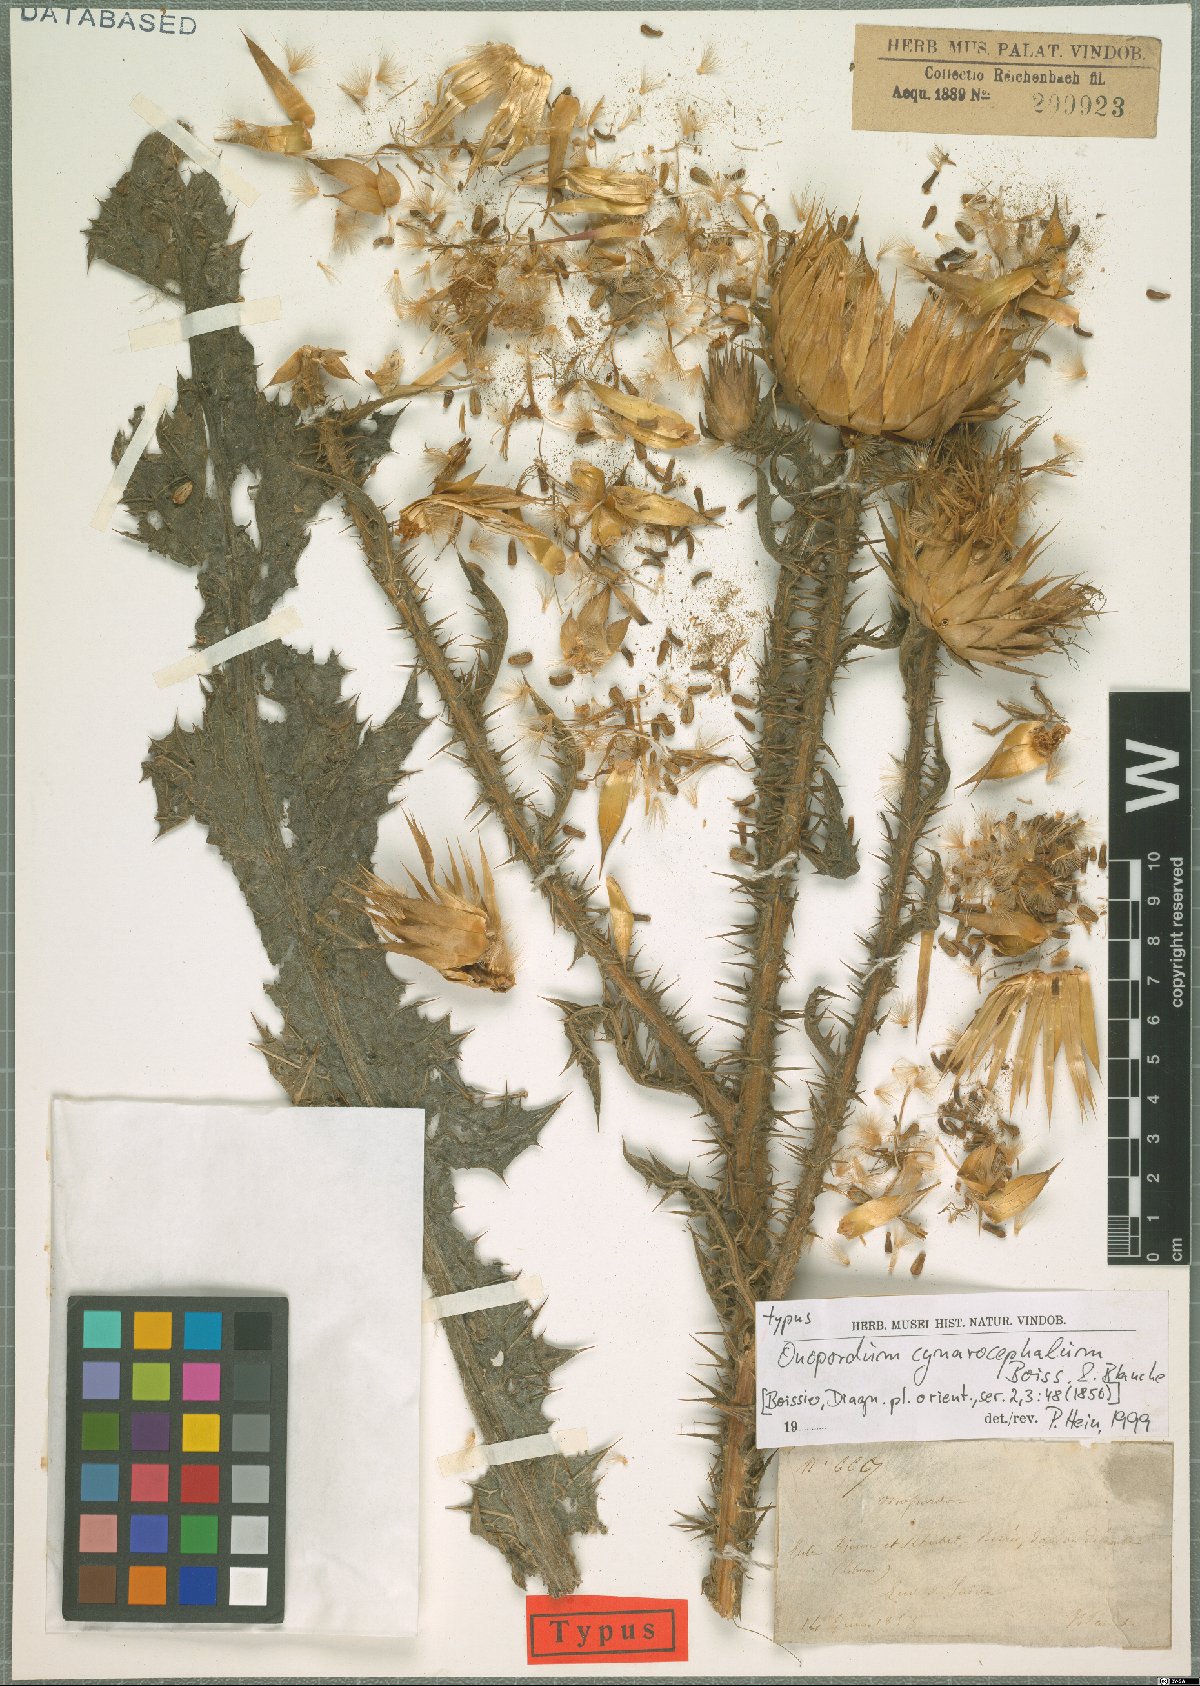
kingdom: Plantae
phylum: Tracheophyta
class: Magnoliopsida
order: Asterales
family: Asteraceae
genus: Onopordum
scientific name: Onopordum cynarocephalum
